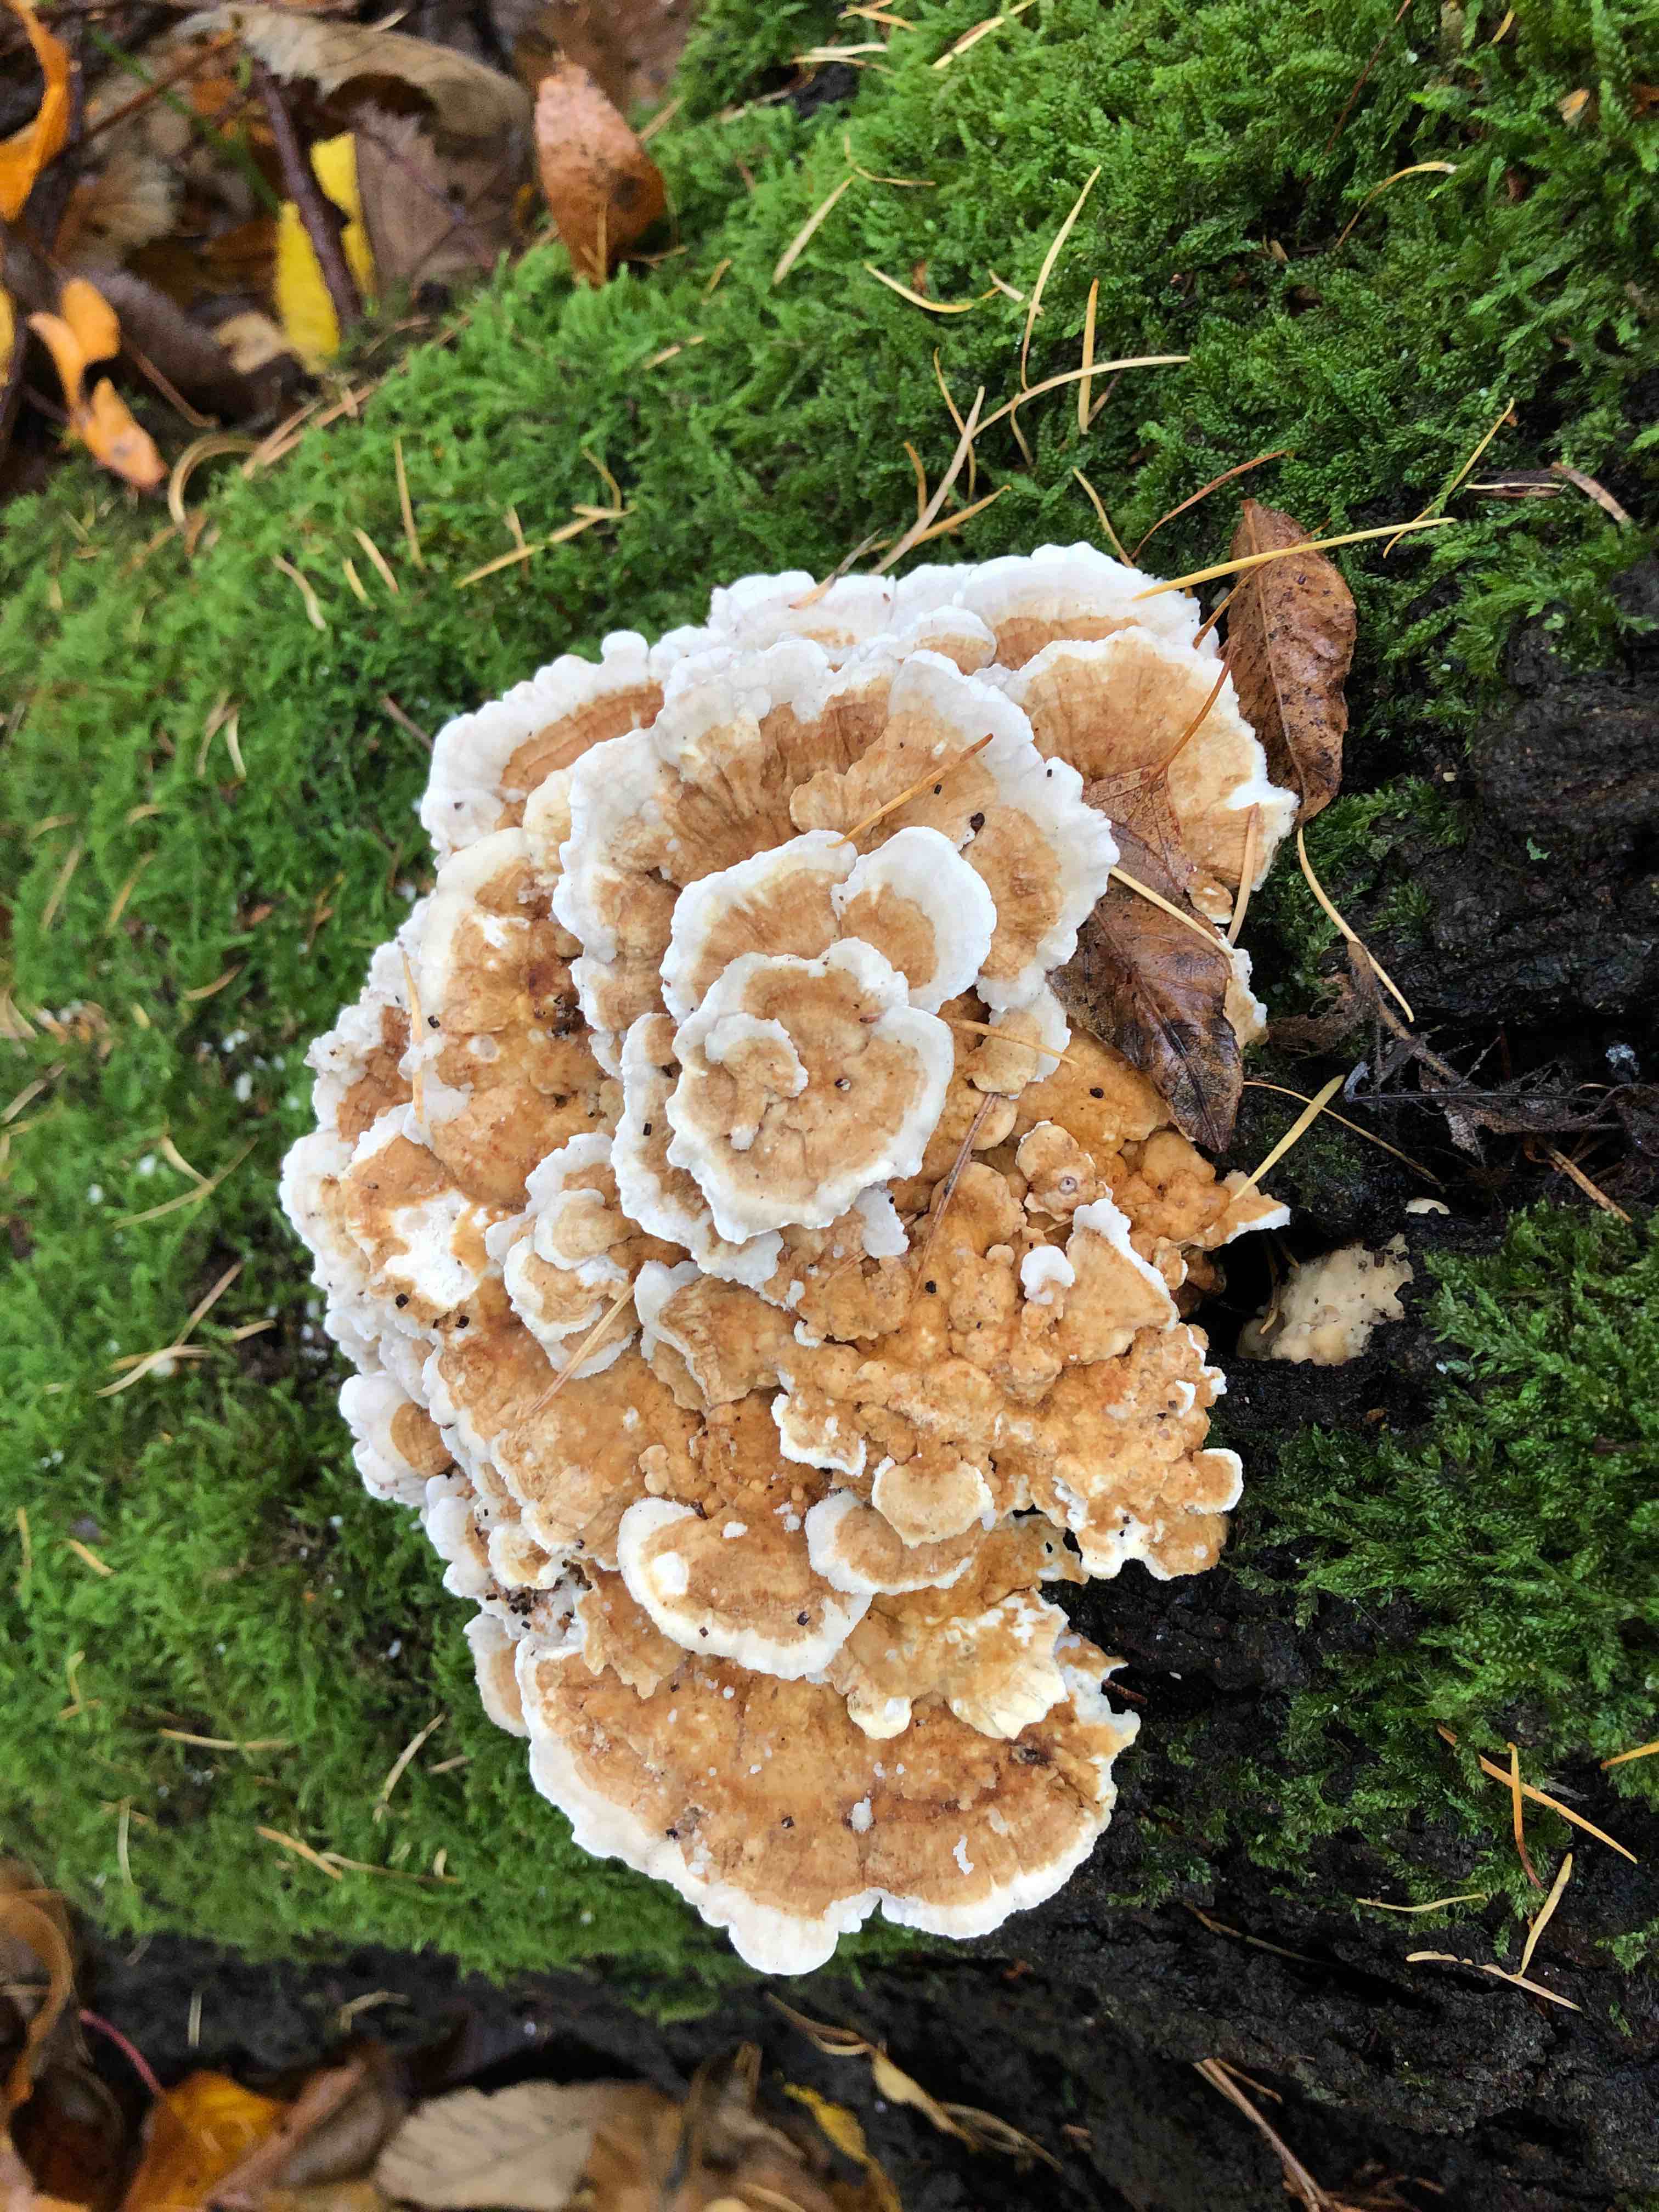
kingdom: Fungi
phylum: Basidiomycota
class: Agaricomycetes
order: Polyporales
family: Polyporaceae
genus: Trametes
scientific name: Trametes ochracea
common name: bæltet læderporesvamp
